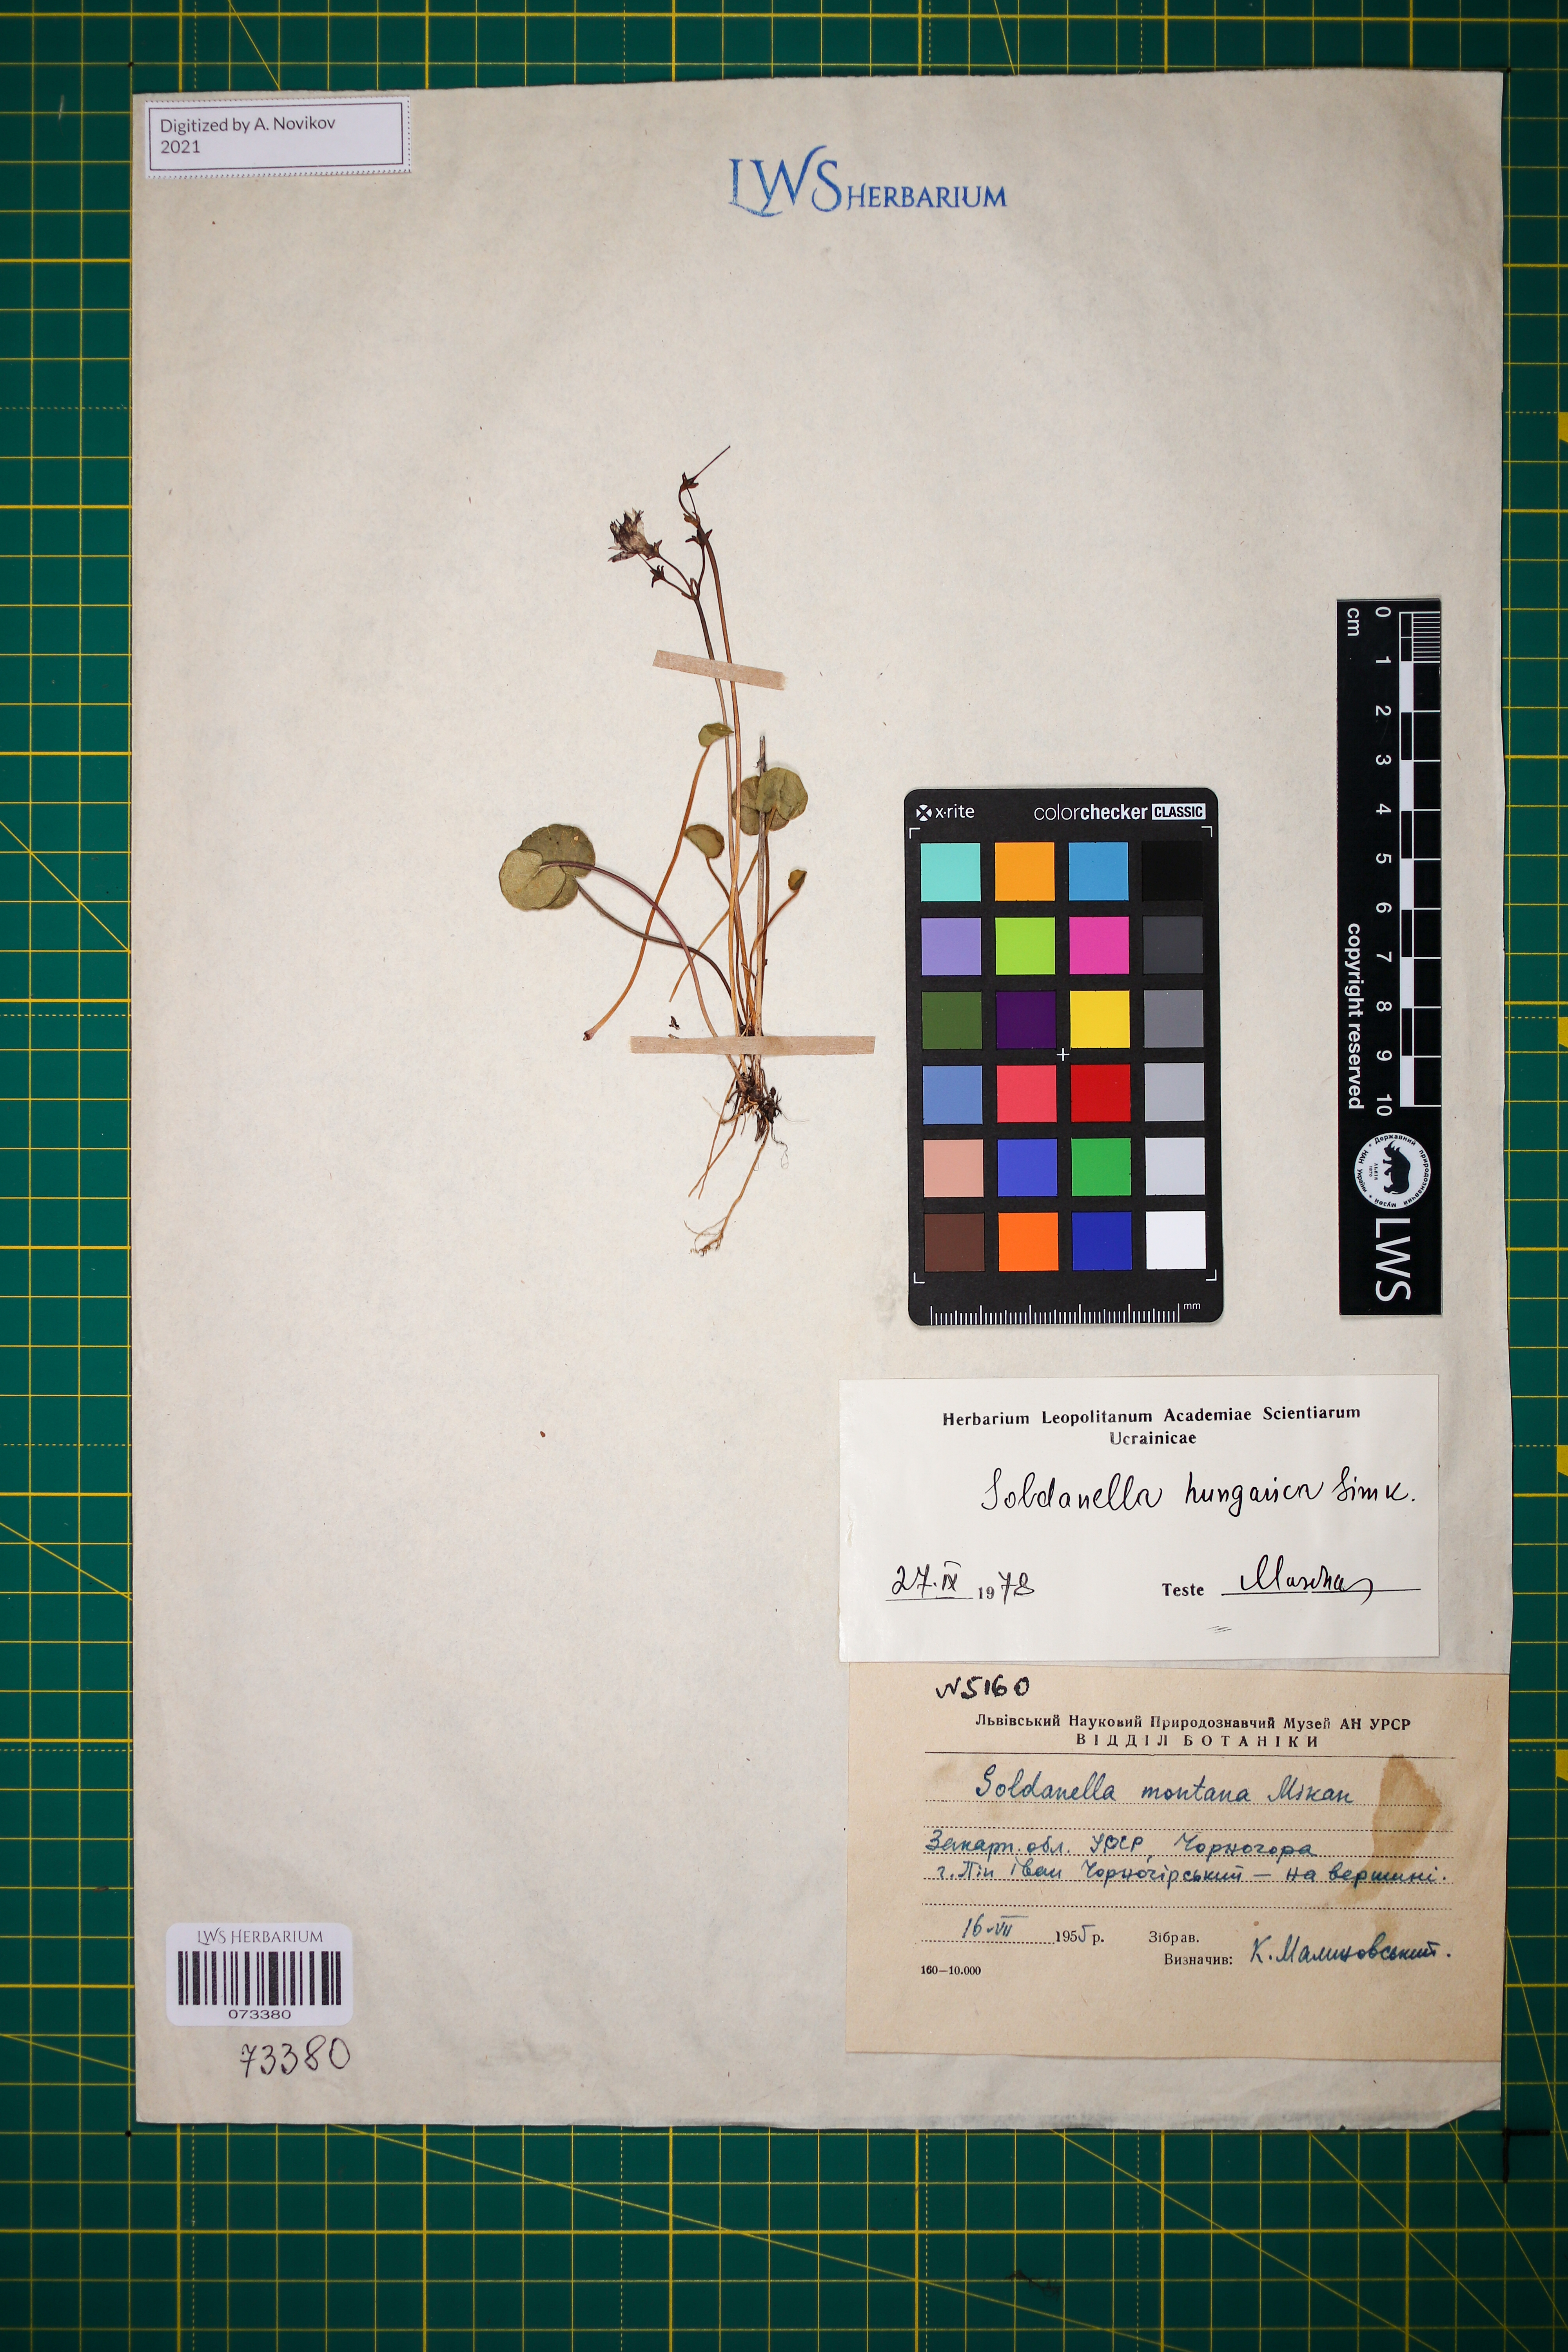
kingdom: Plantae
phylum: Tracheophyta
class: Magnoliopsida
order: Ericales
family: Primulaceae
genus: Soldanella
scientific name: Soldanella hungarica
